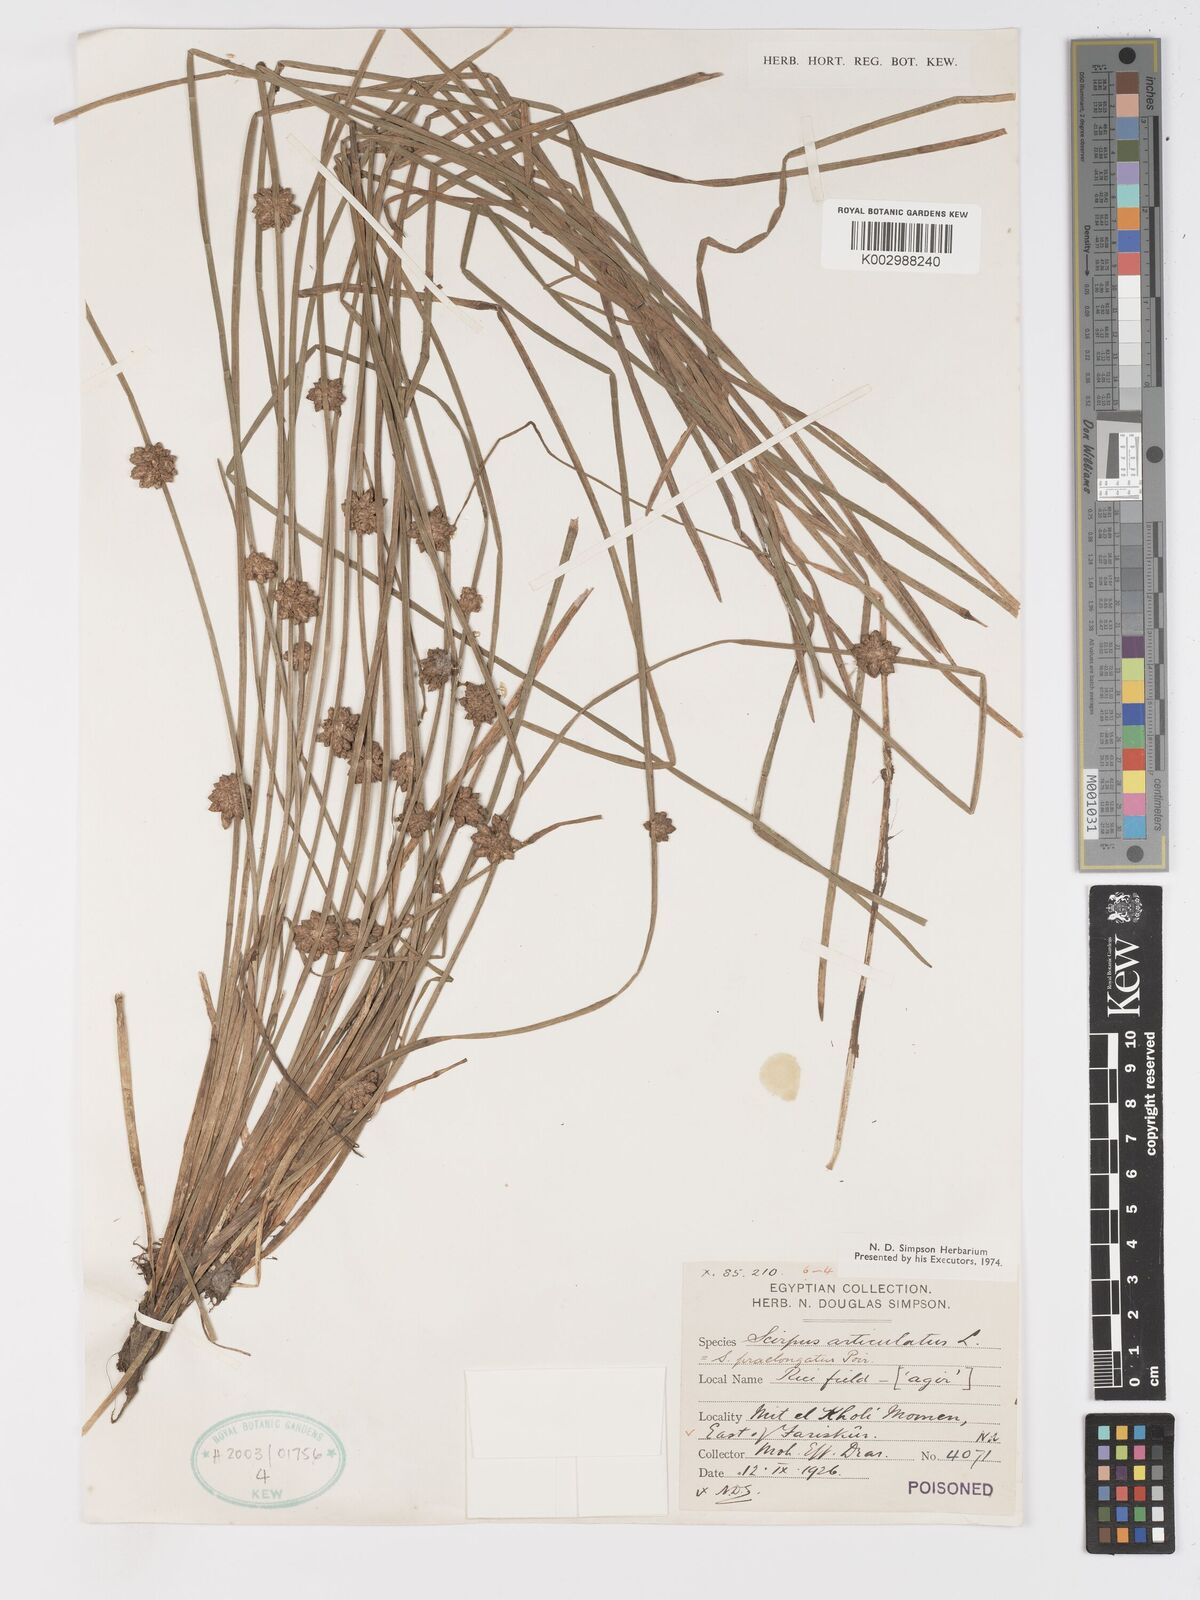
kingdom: Plantae
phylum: Tracheophyta
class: Liliopsida
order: Poales
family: Cyperaceae
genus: Schoenoplectiella
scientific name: Schoenoplectiella senegalensis
